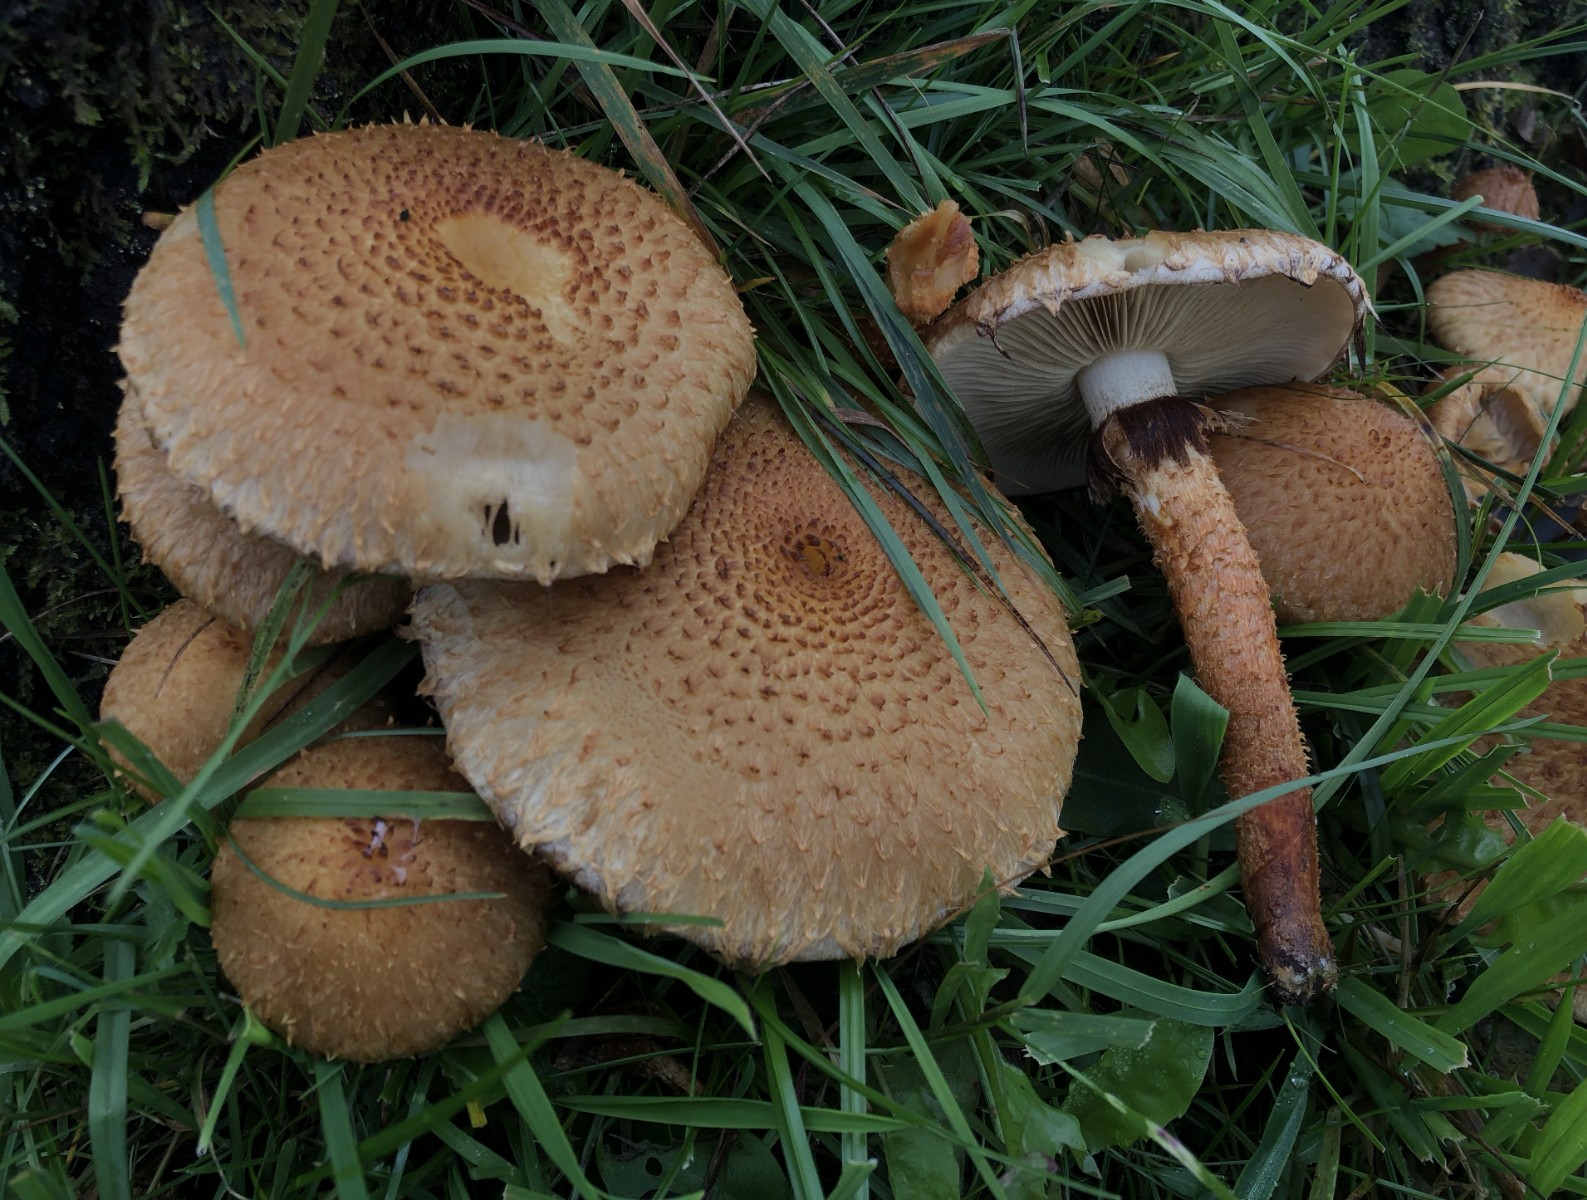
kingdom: Fungi
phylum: Basidiomycota
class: Agaricomycetes
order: Agaricales
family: Strophariaceae
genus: Pholiota
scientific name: Pholiota squarrosa
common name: krumskællet skælhat
